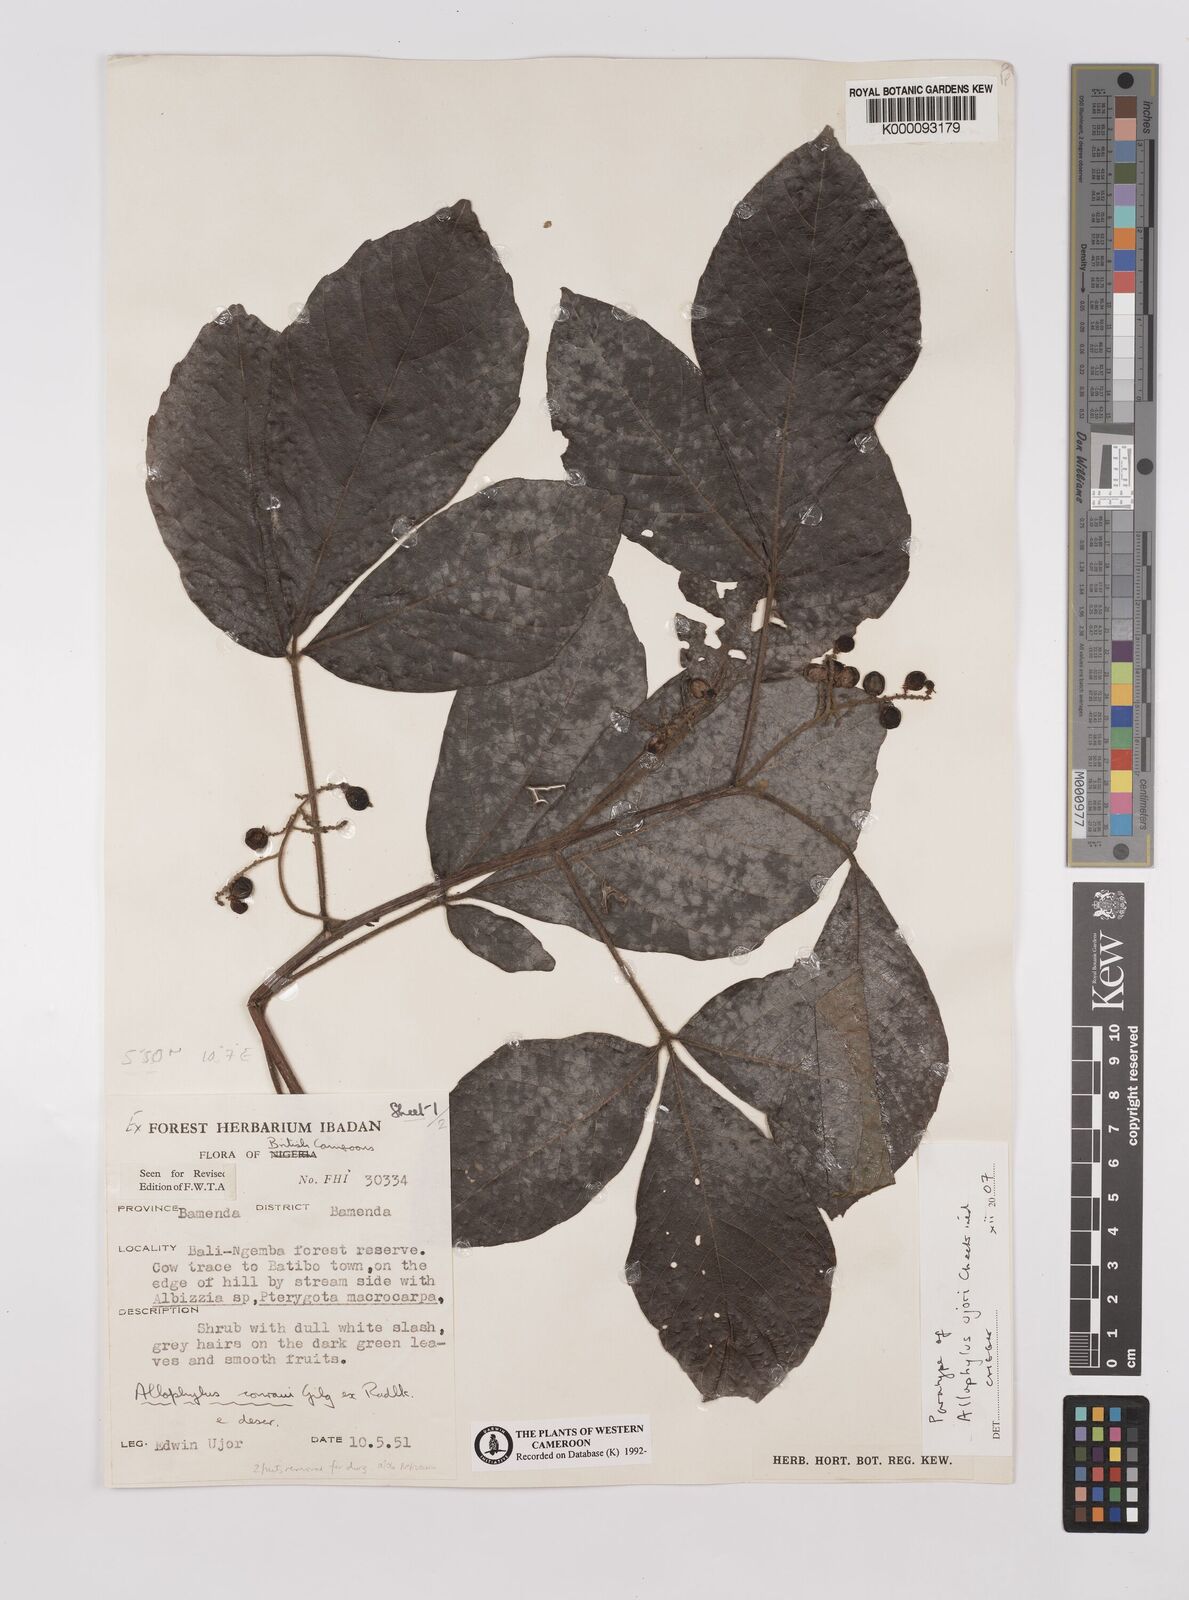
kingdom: Plantae
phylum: Tracheophyta
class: Magnoliopsida
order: Sapindales
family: Sapindaceae
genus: Allophylus
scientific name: Allophylus ujori
